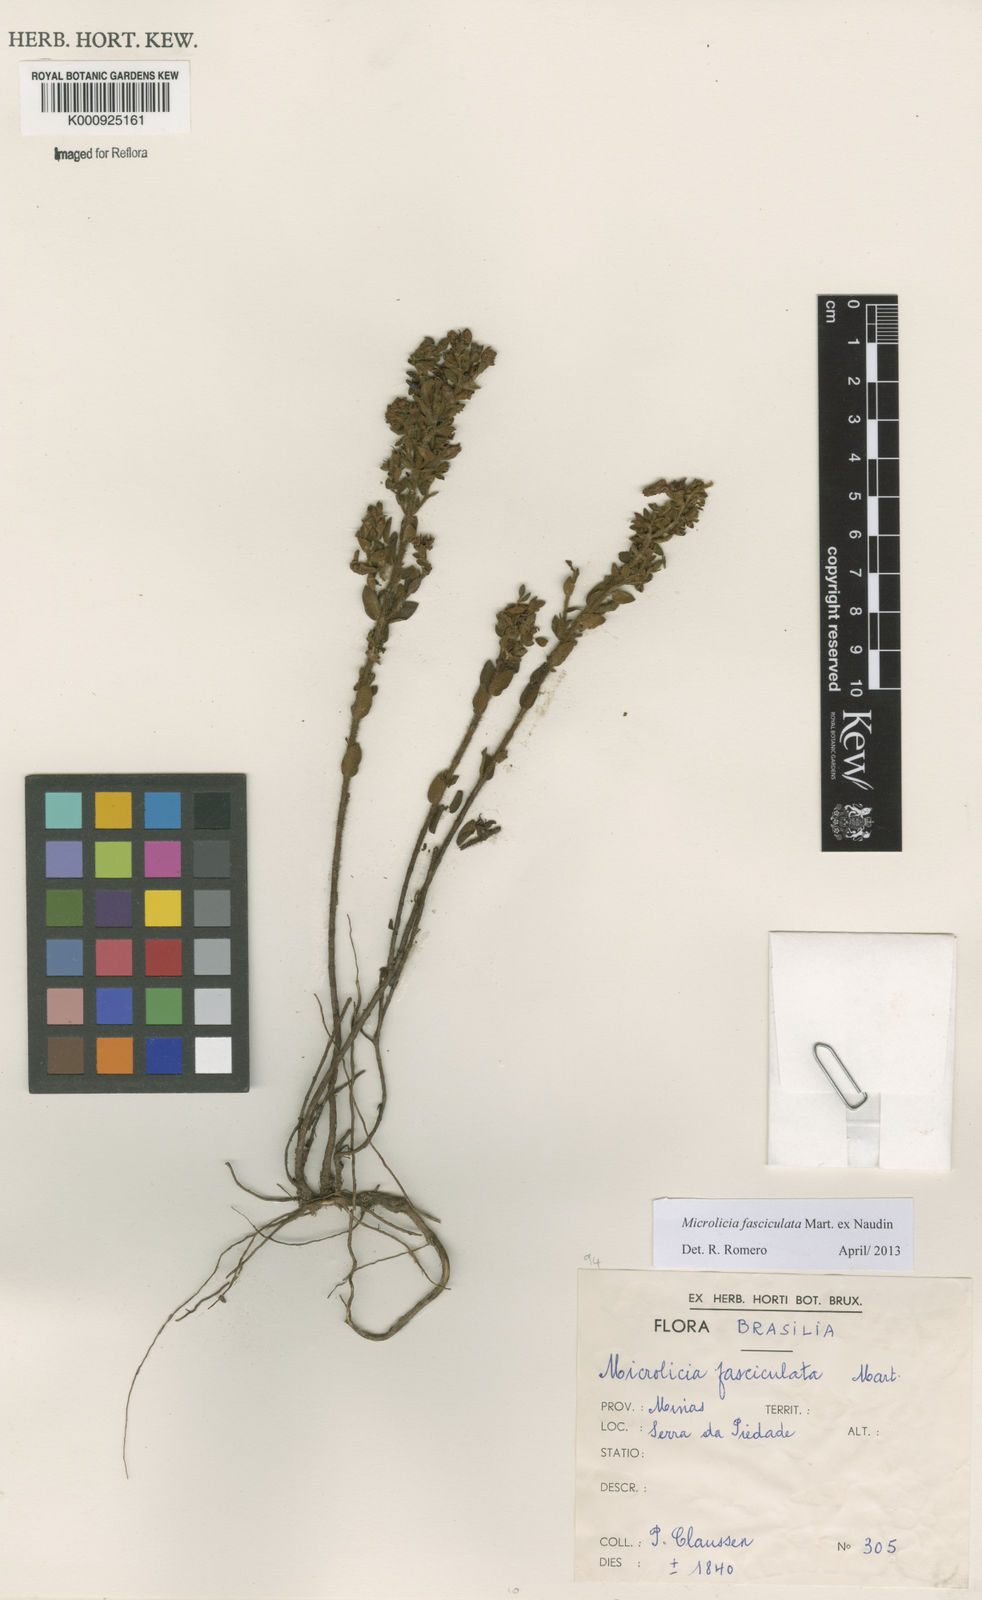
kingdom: Plantae
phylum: Tracheophyta
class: Magnoliopsida
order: Myrtales
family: Melastomataceae
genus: Microlicia
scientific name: Microlicia fasciculata
